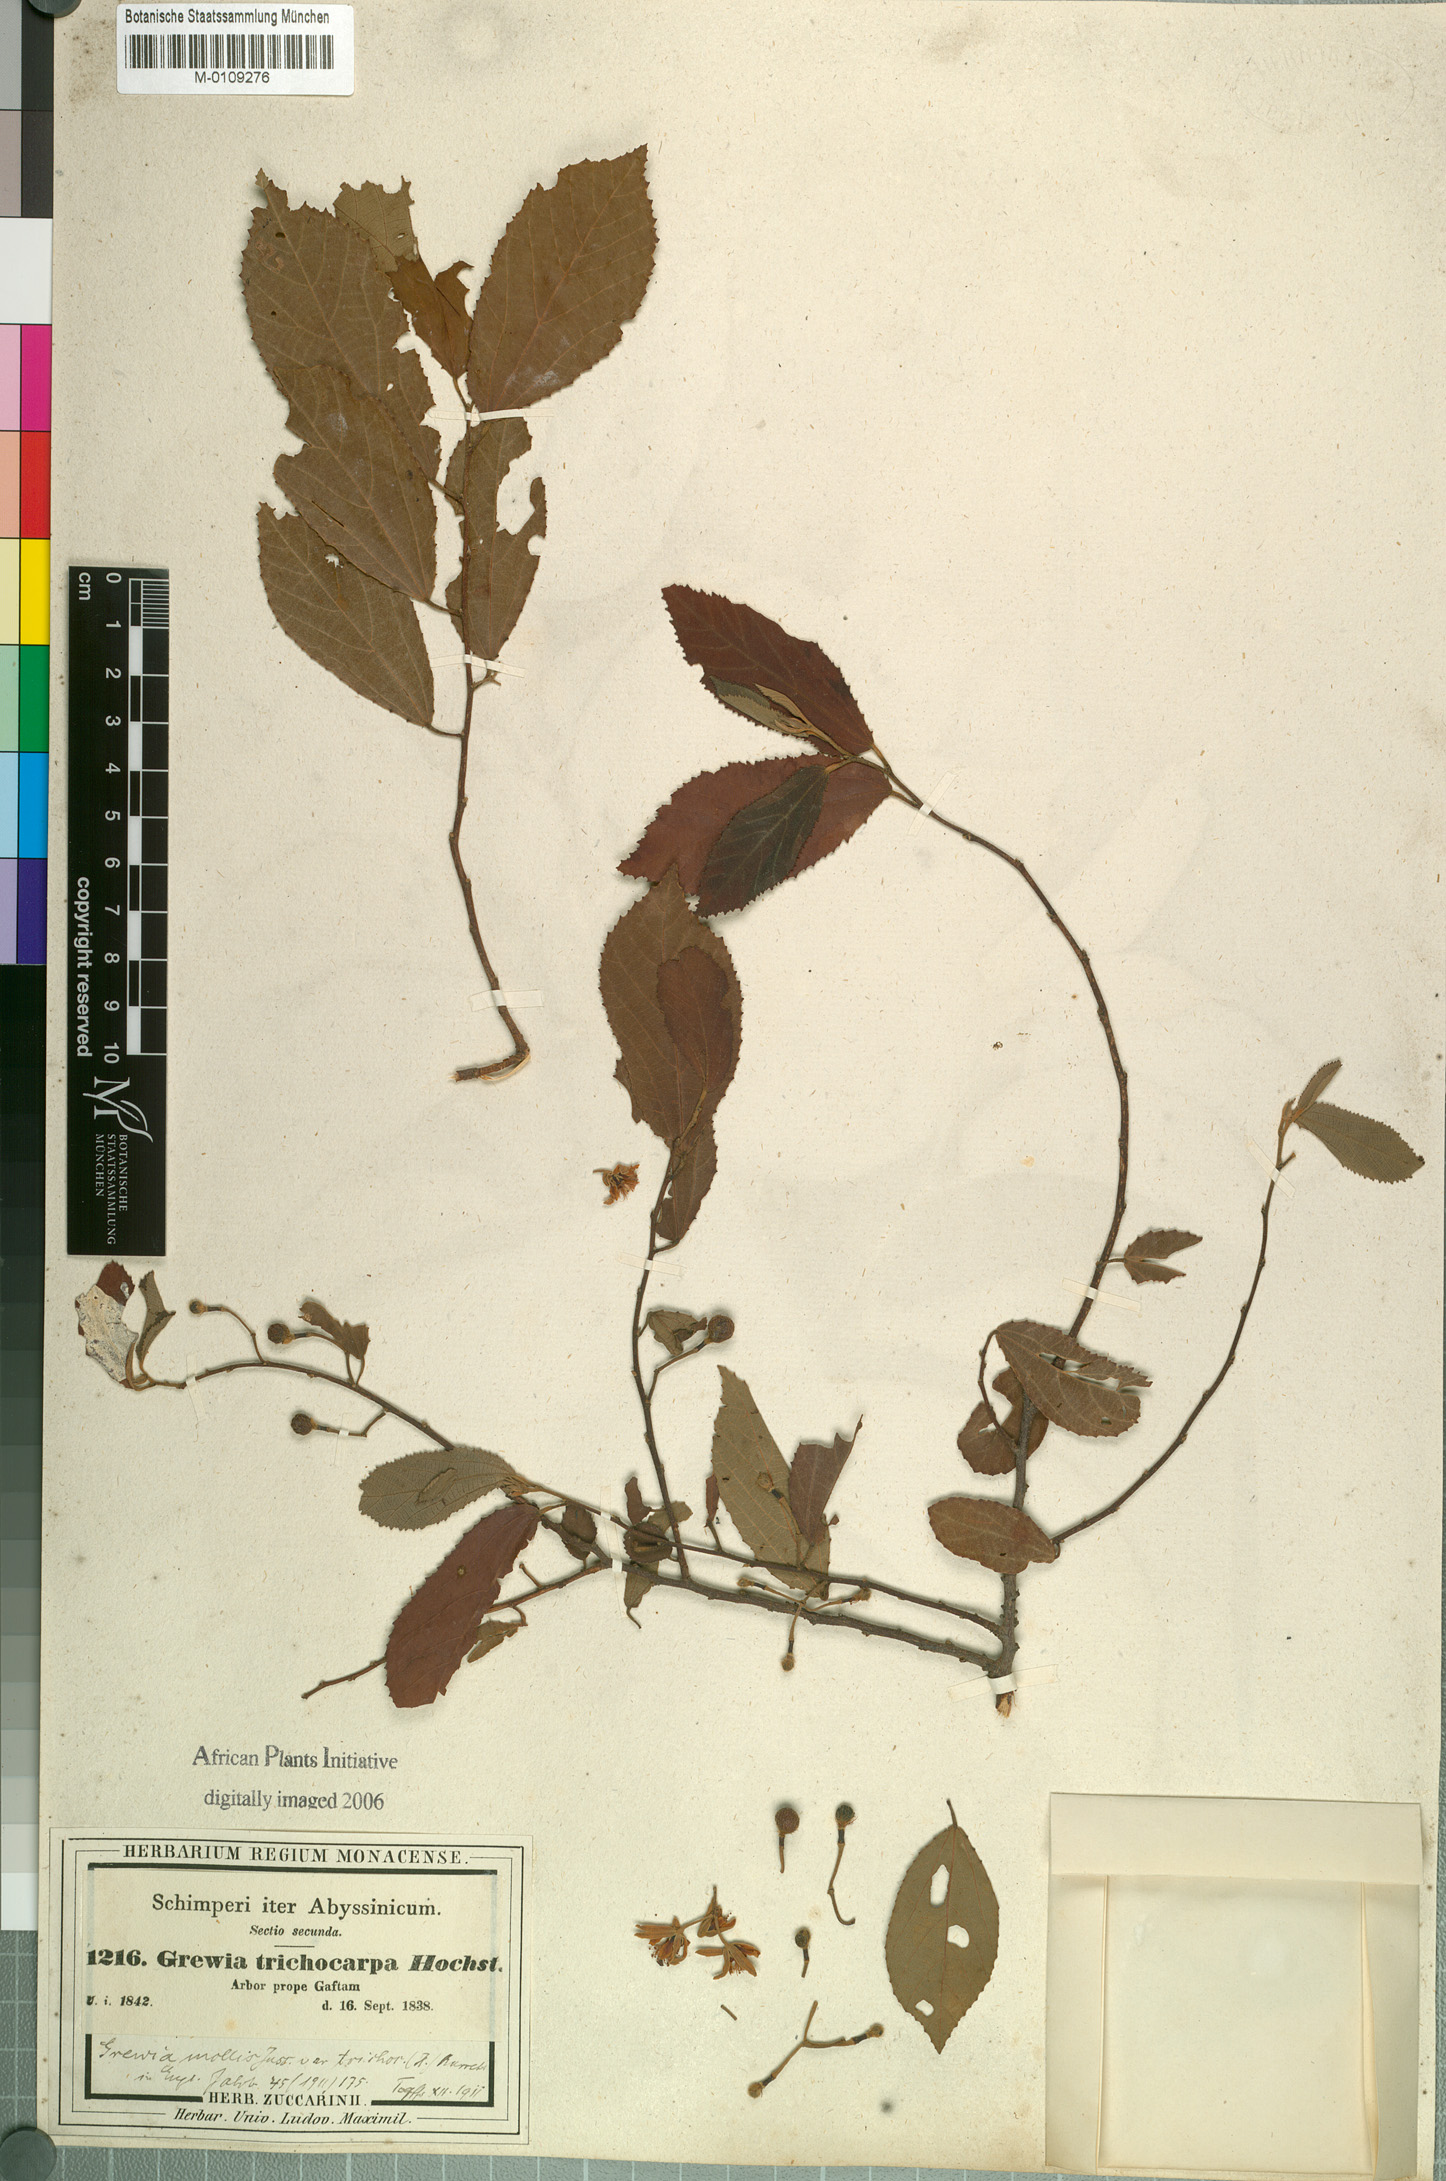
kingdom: Plantae
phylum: Tracheophyta
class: Magnoliopsida
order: Malvales
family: Malvaceae
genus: Grewia
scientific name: Grewia mollis
